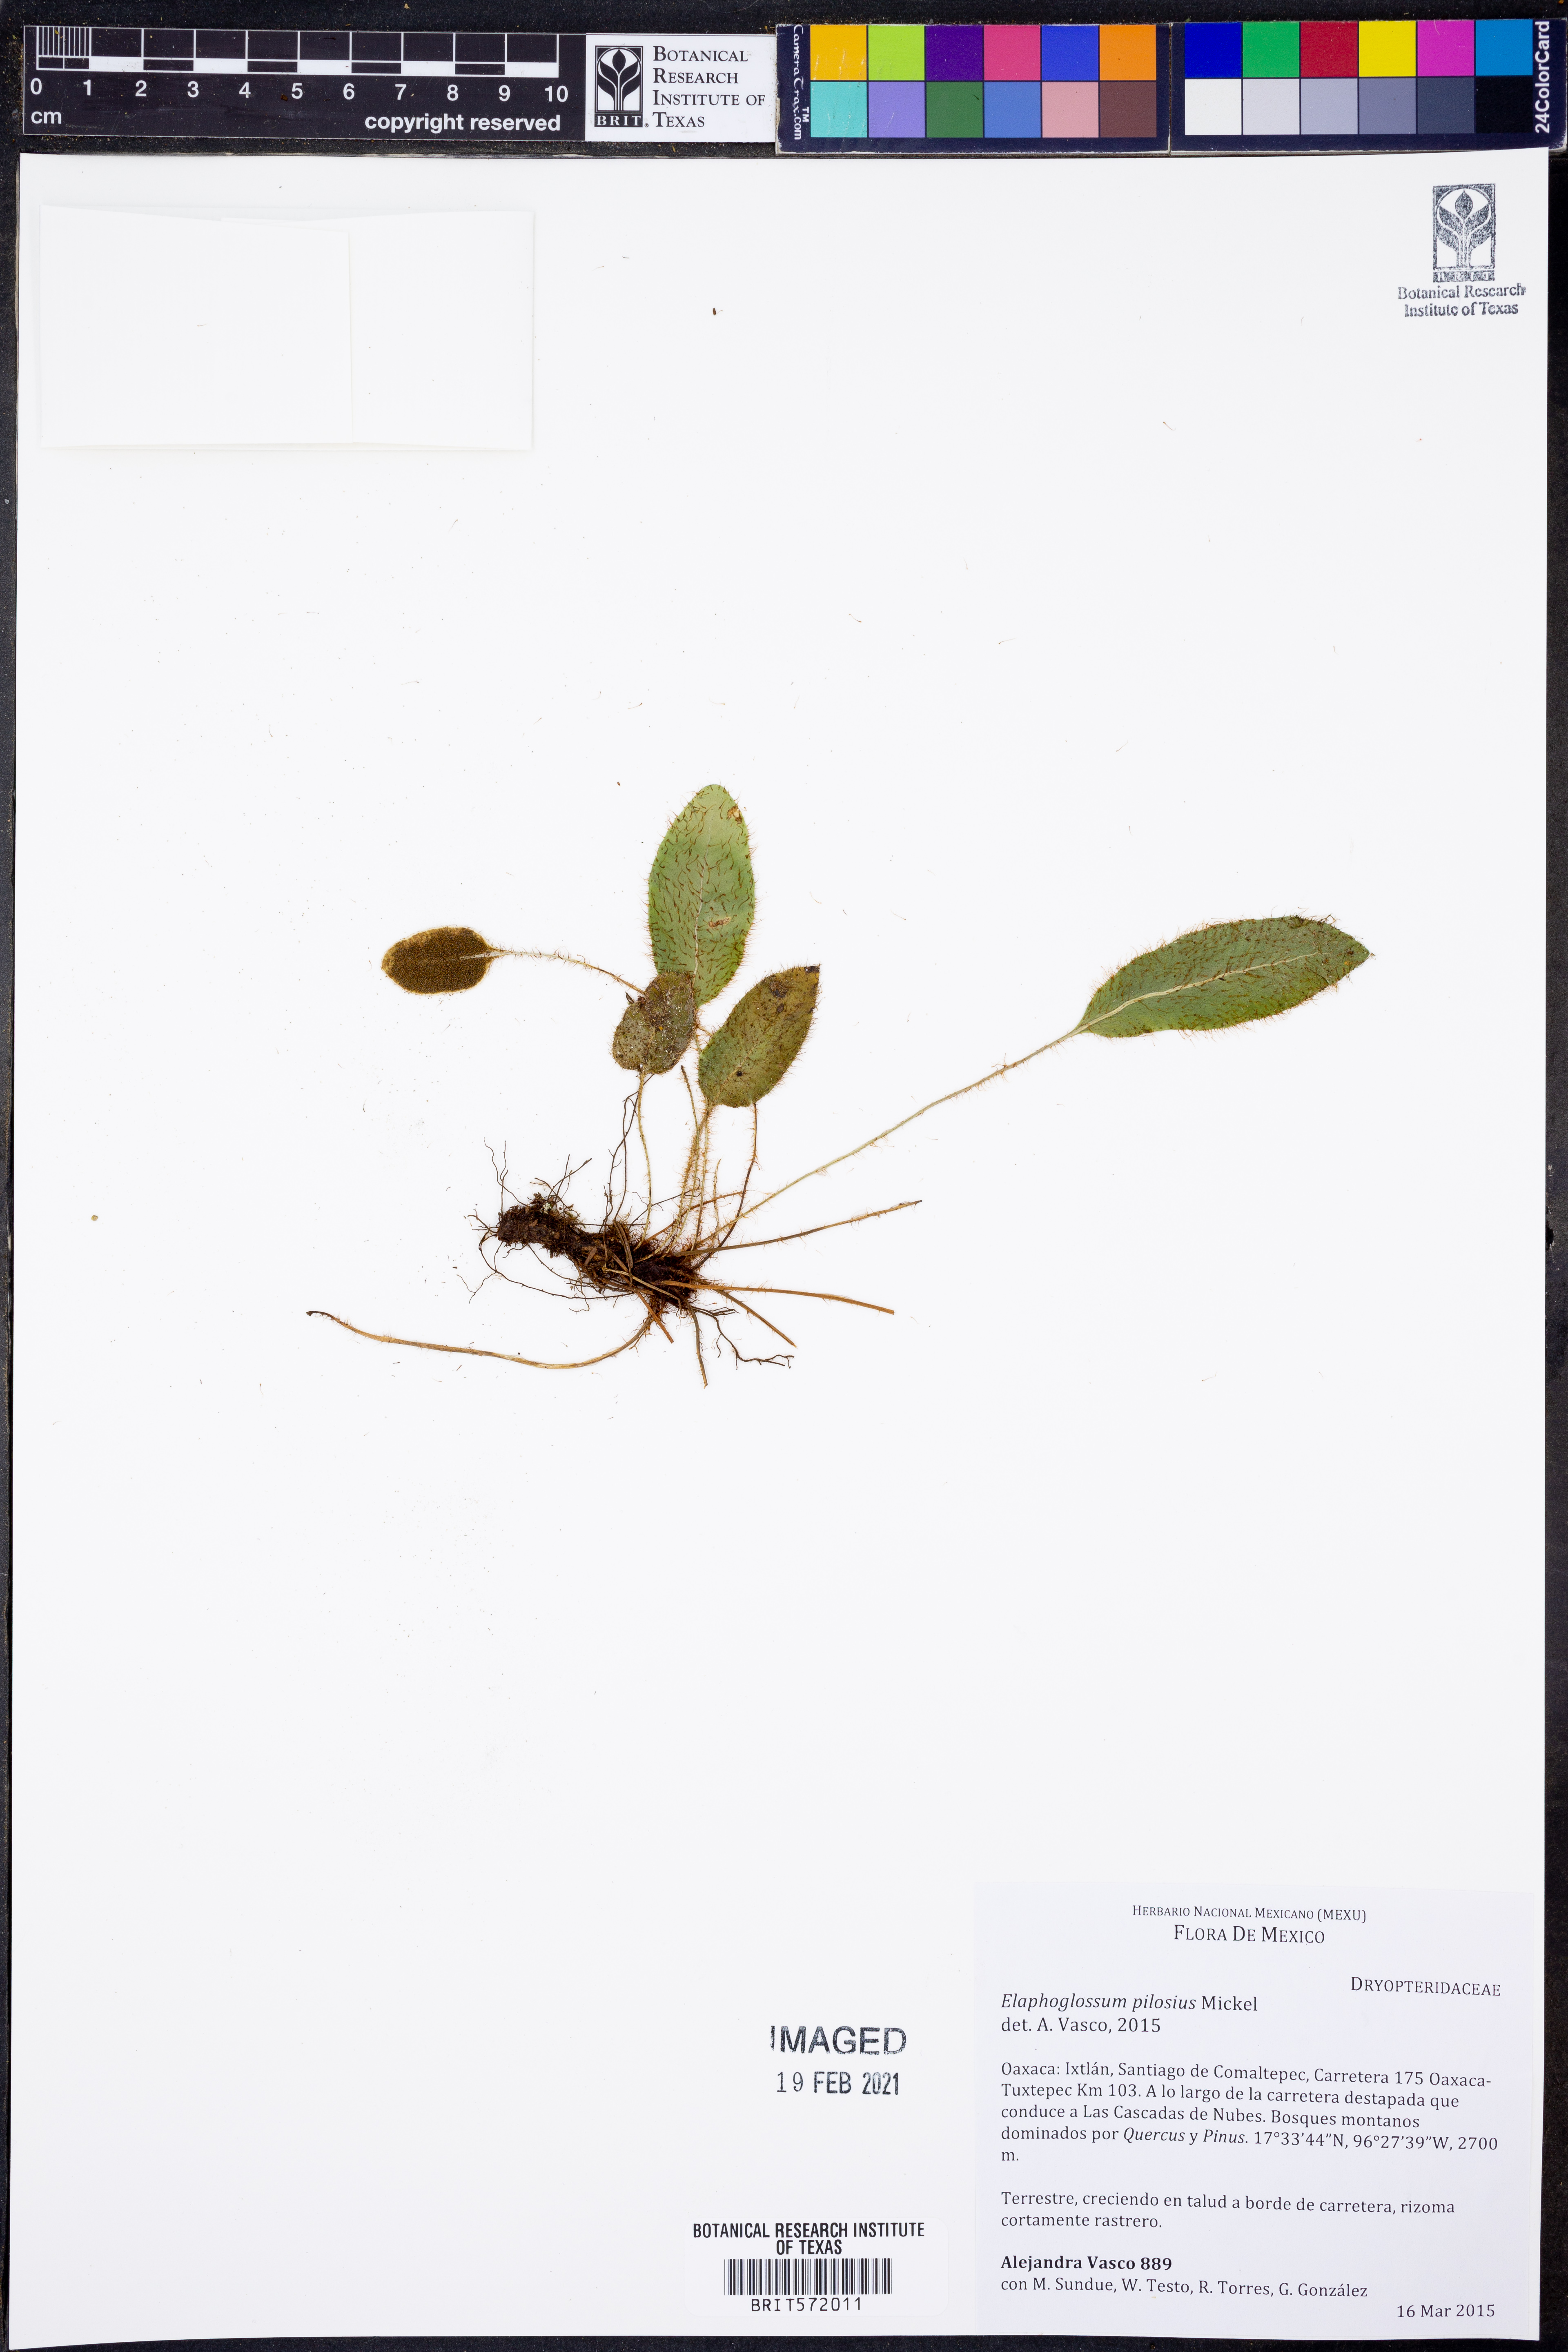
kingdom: Plantae
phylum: Tracheophyta
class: Polypodiopsida
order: Polypodiales
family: Dryopteridaceae
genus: Elaphoglossum
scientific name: Elaphoglossum pilosius
